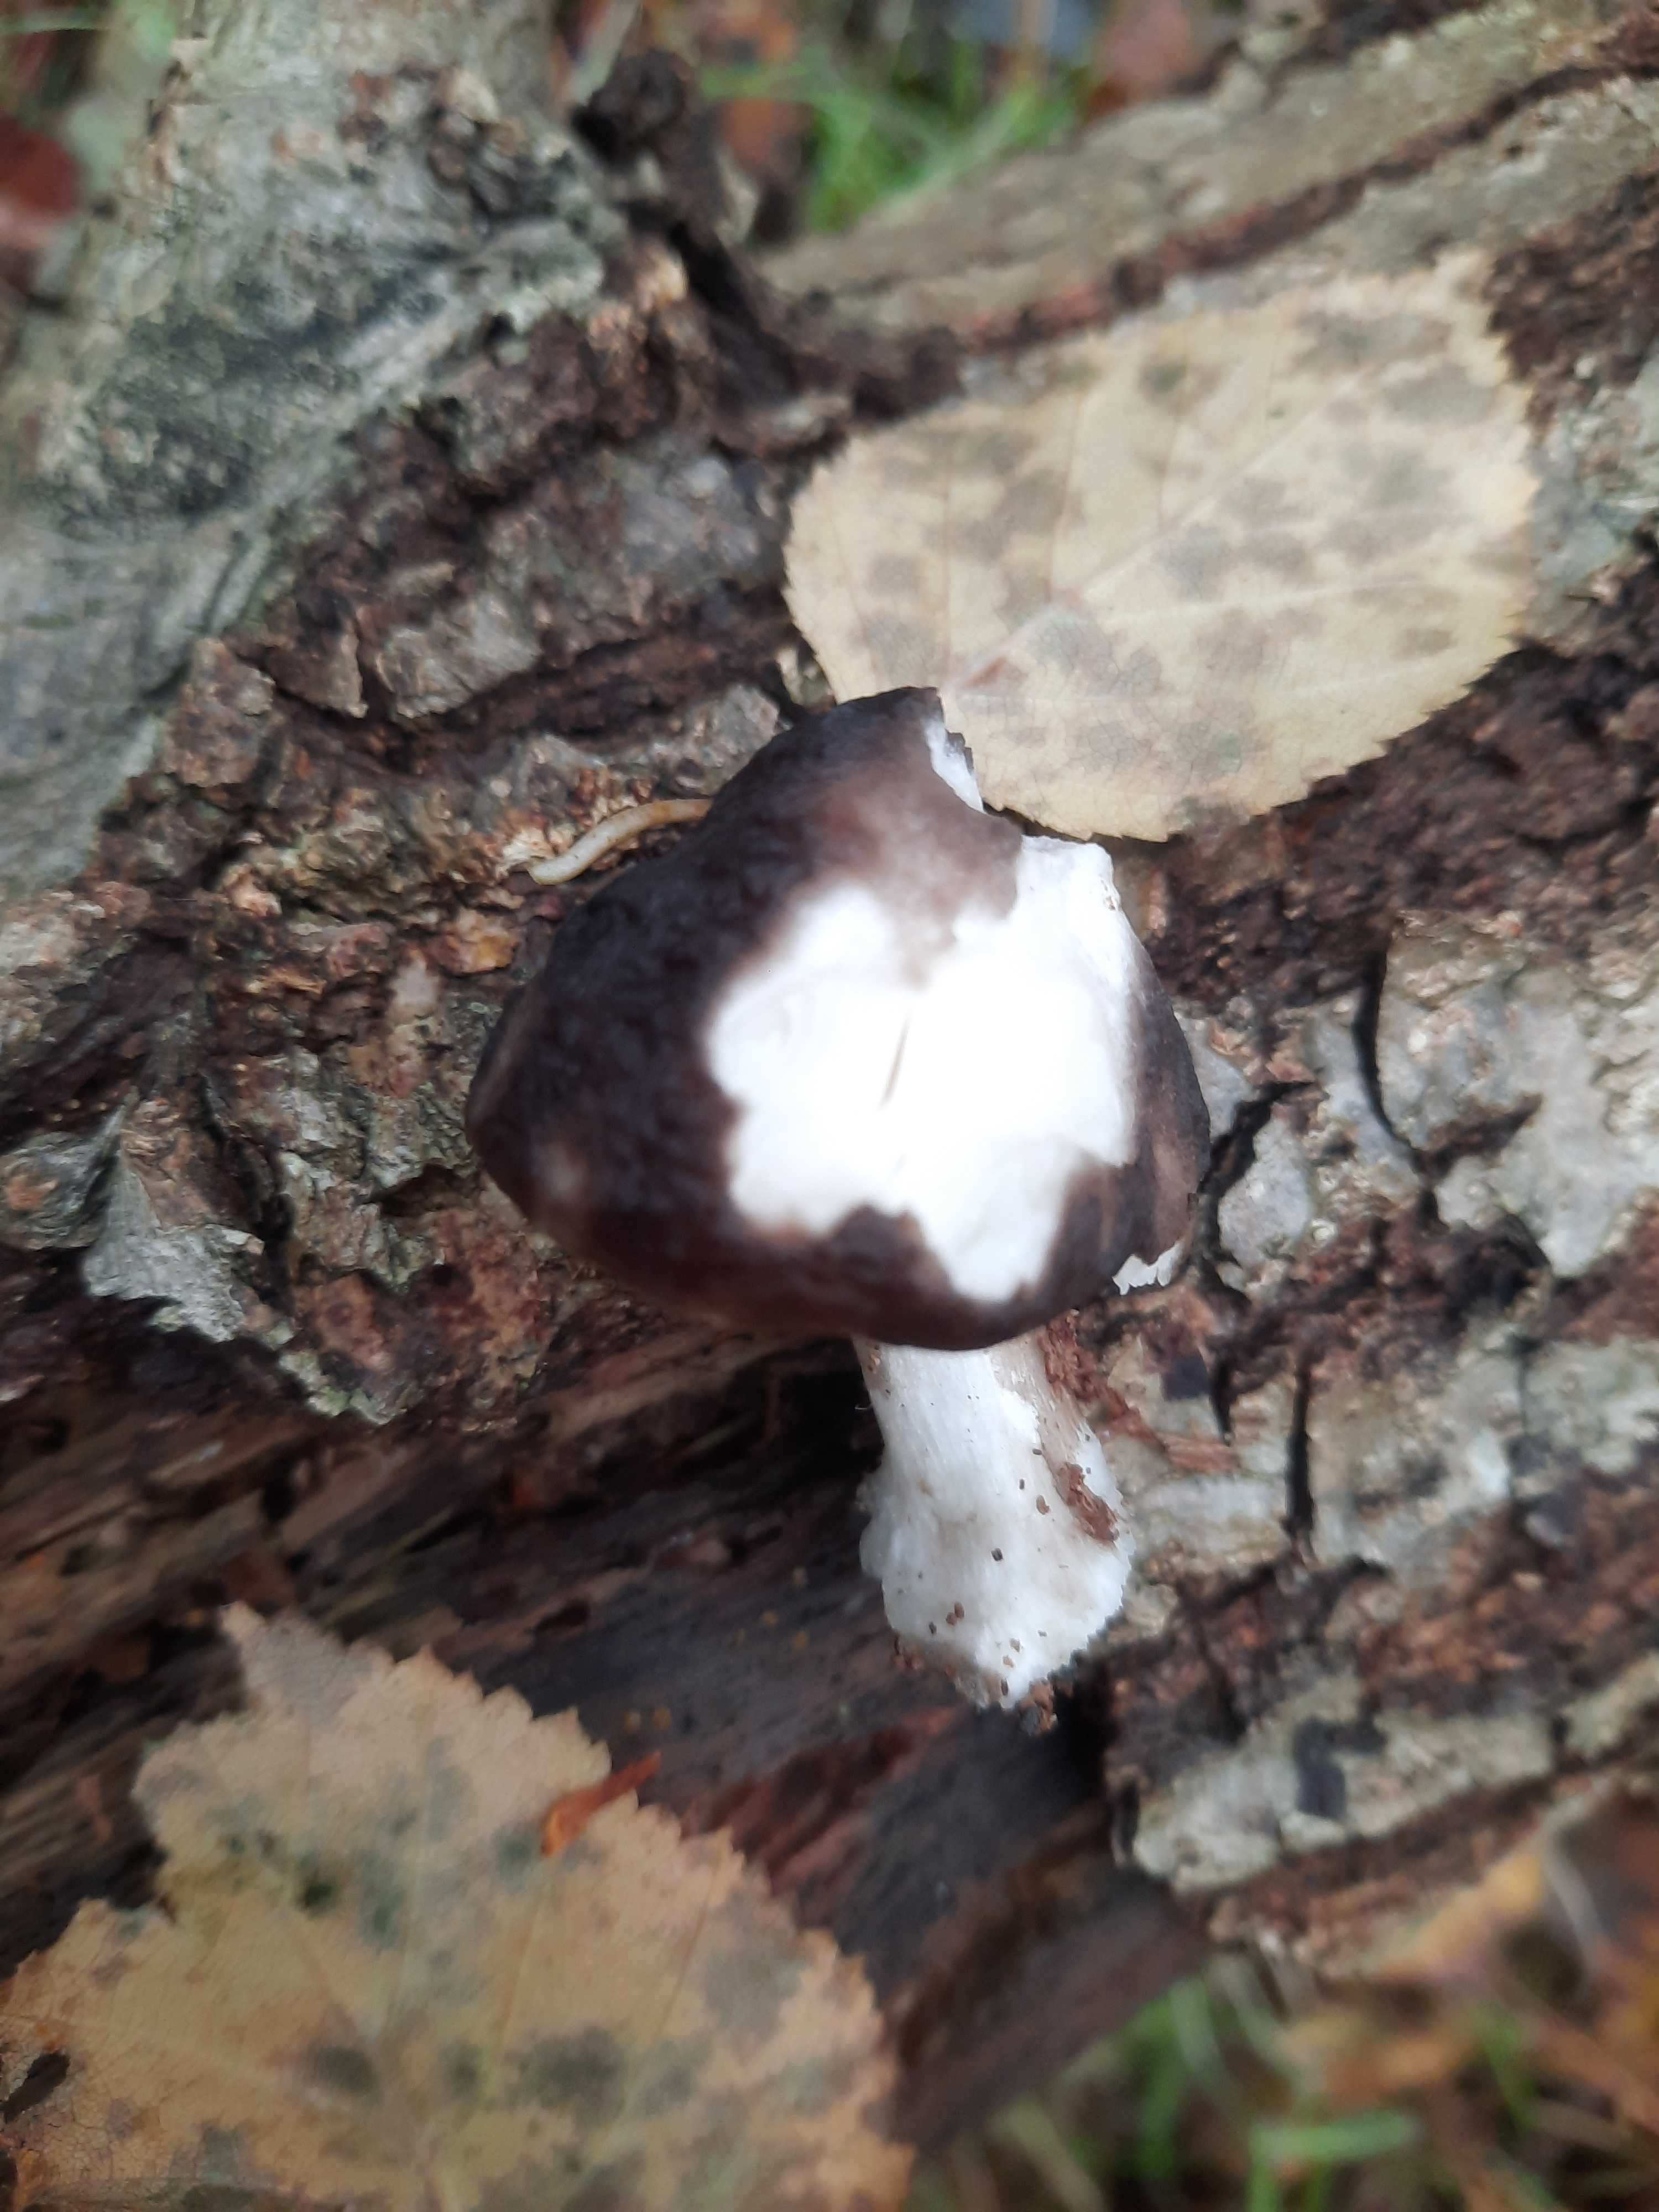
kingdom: Fungi
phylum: Basidiomycota
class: Agaricomycetes
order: Agaricales
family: Pluteaceae
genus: Pluteus
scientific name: Pluteus cervinus
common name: sodfarvet skærmhat
